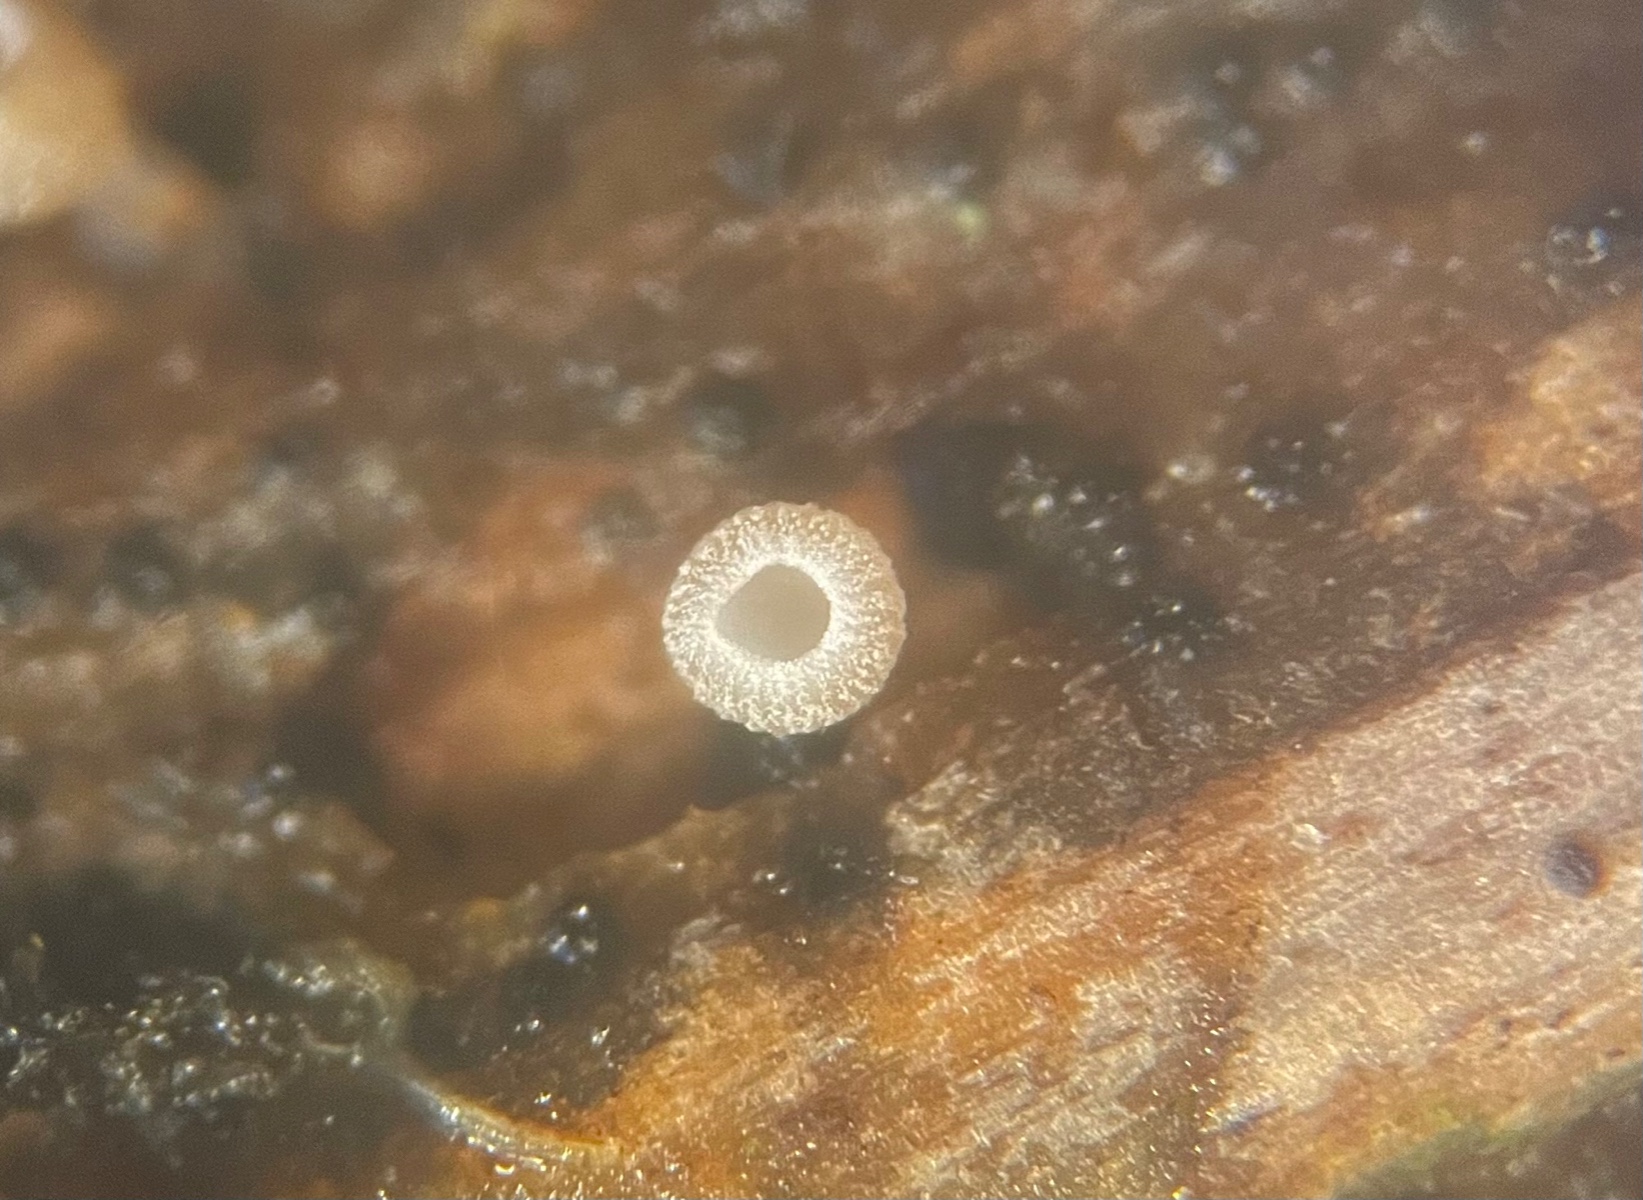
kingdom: Fungi
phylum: Ascomycota
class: Leotiomycetes
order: Helotiales
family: Helotiaceae
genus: Cyathicula
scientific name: Cyathicula cyathoidea
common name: pokal-stilkskive
